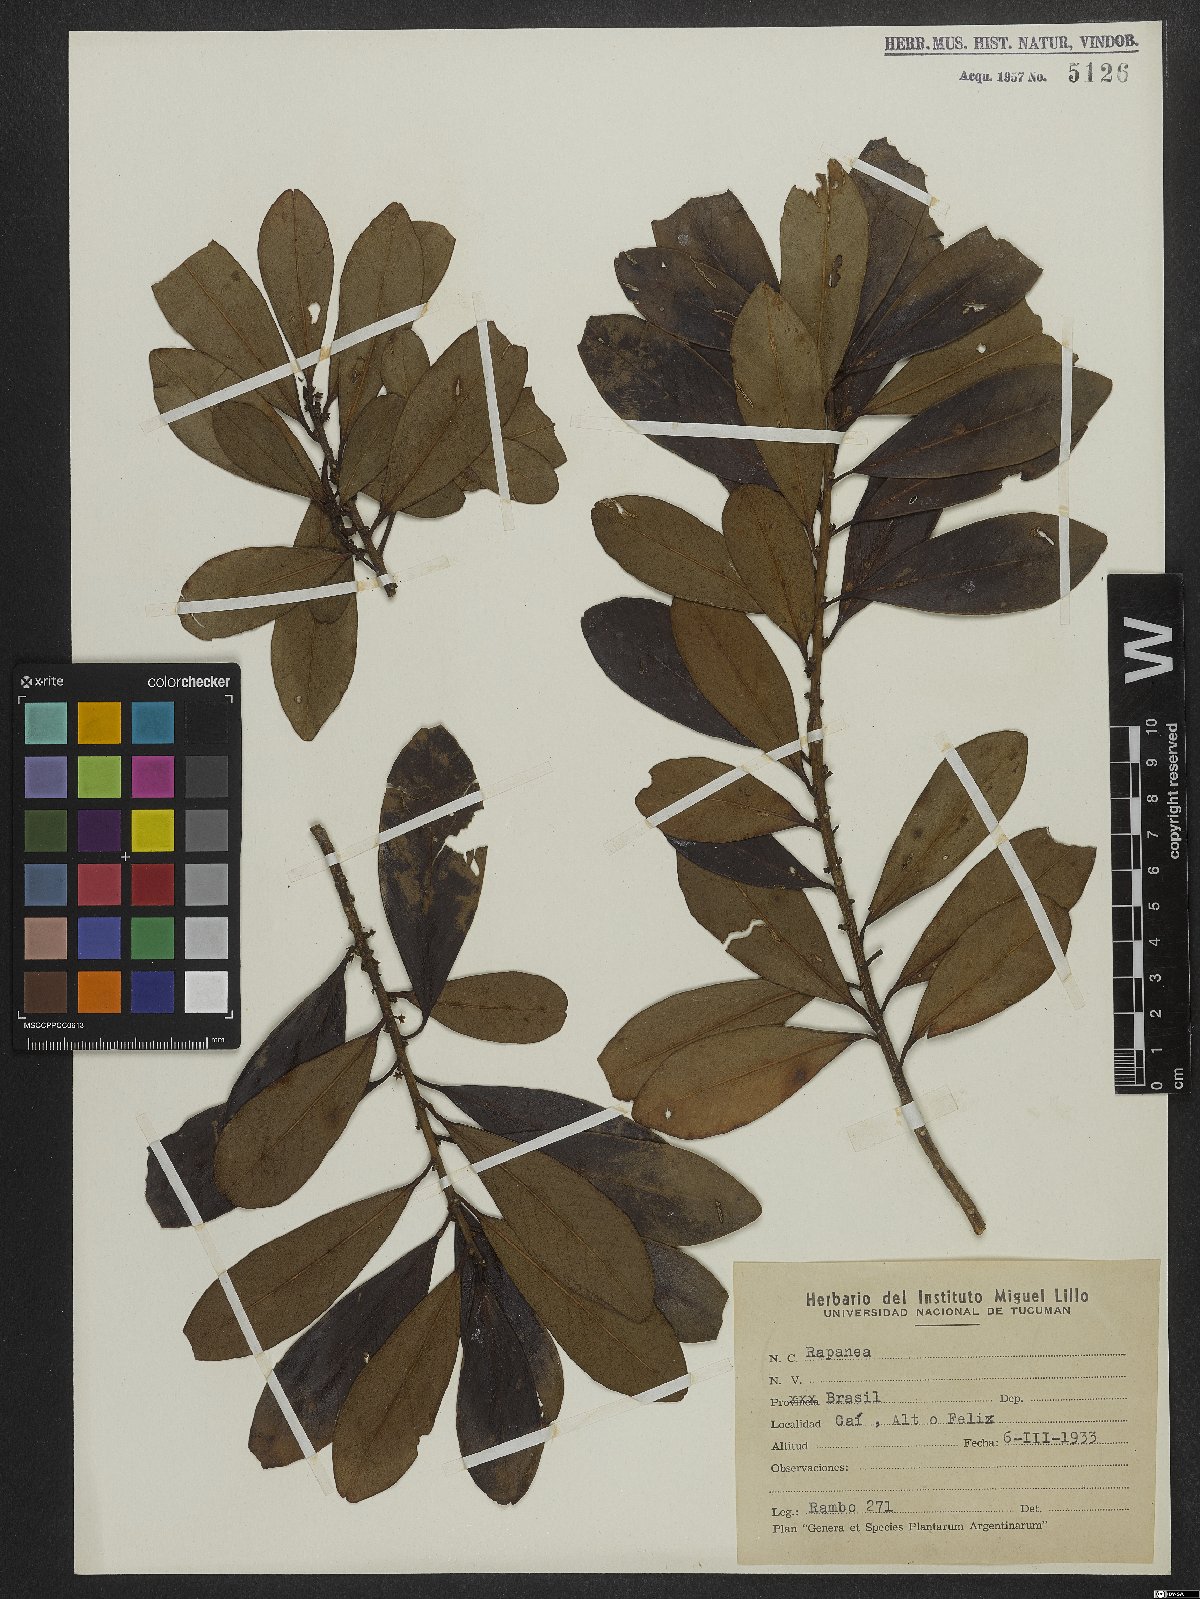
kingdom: Plantae
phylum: Tracheophyta
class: Magnoliopsida
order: Ericales
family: Primulaceae
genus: Myrsine
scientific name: Myrsine
